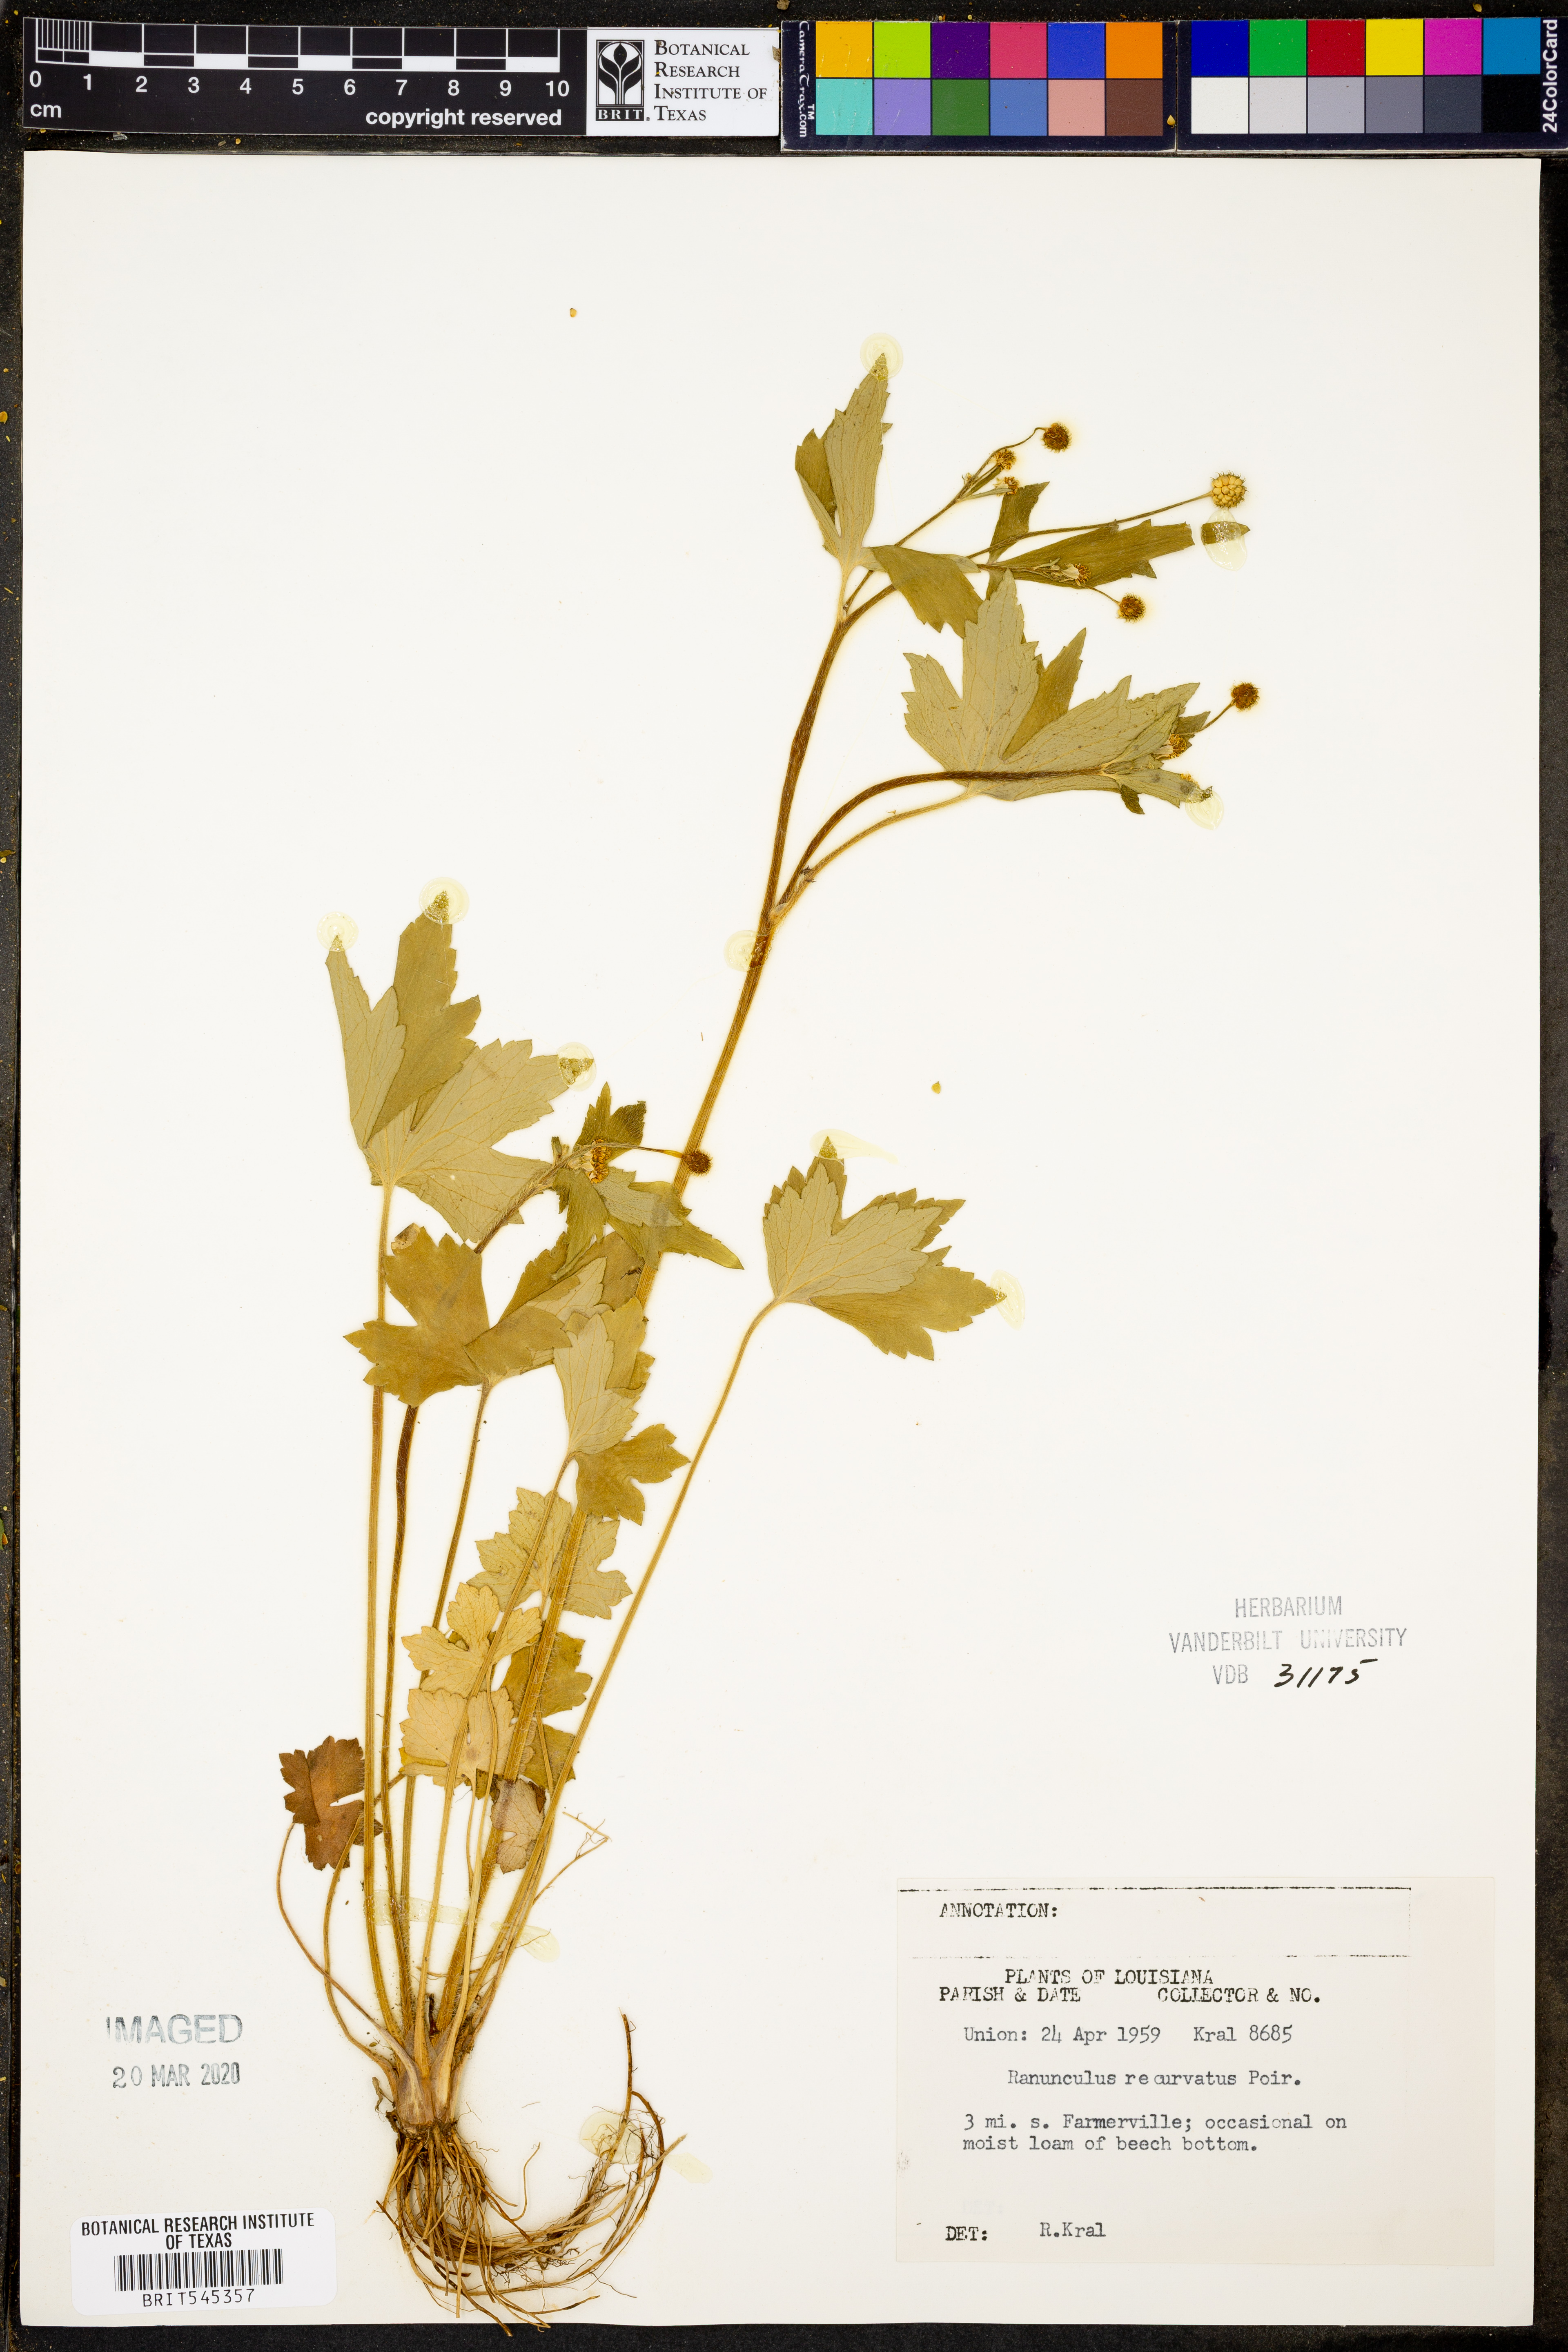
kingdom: Plantae
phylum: Tracheophyta
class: Magnoliopsida
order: Ranunculales
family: Ranunculaceae
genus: Ranunculus
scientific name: Ranunculus recurvatus
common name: Blisterwort
